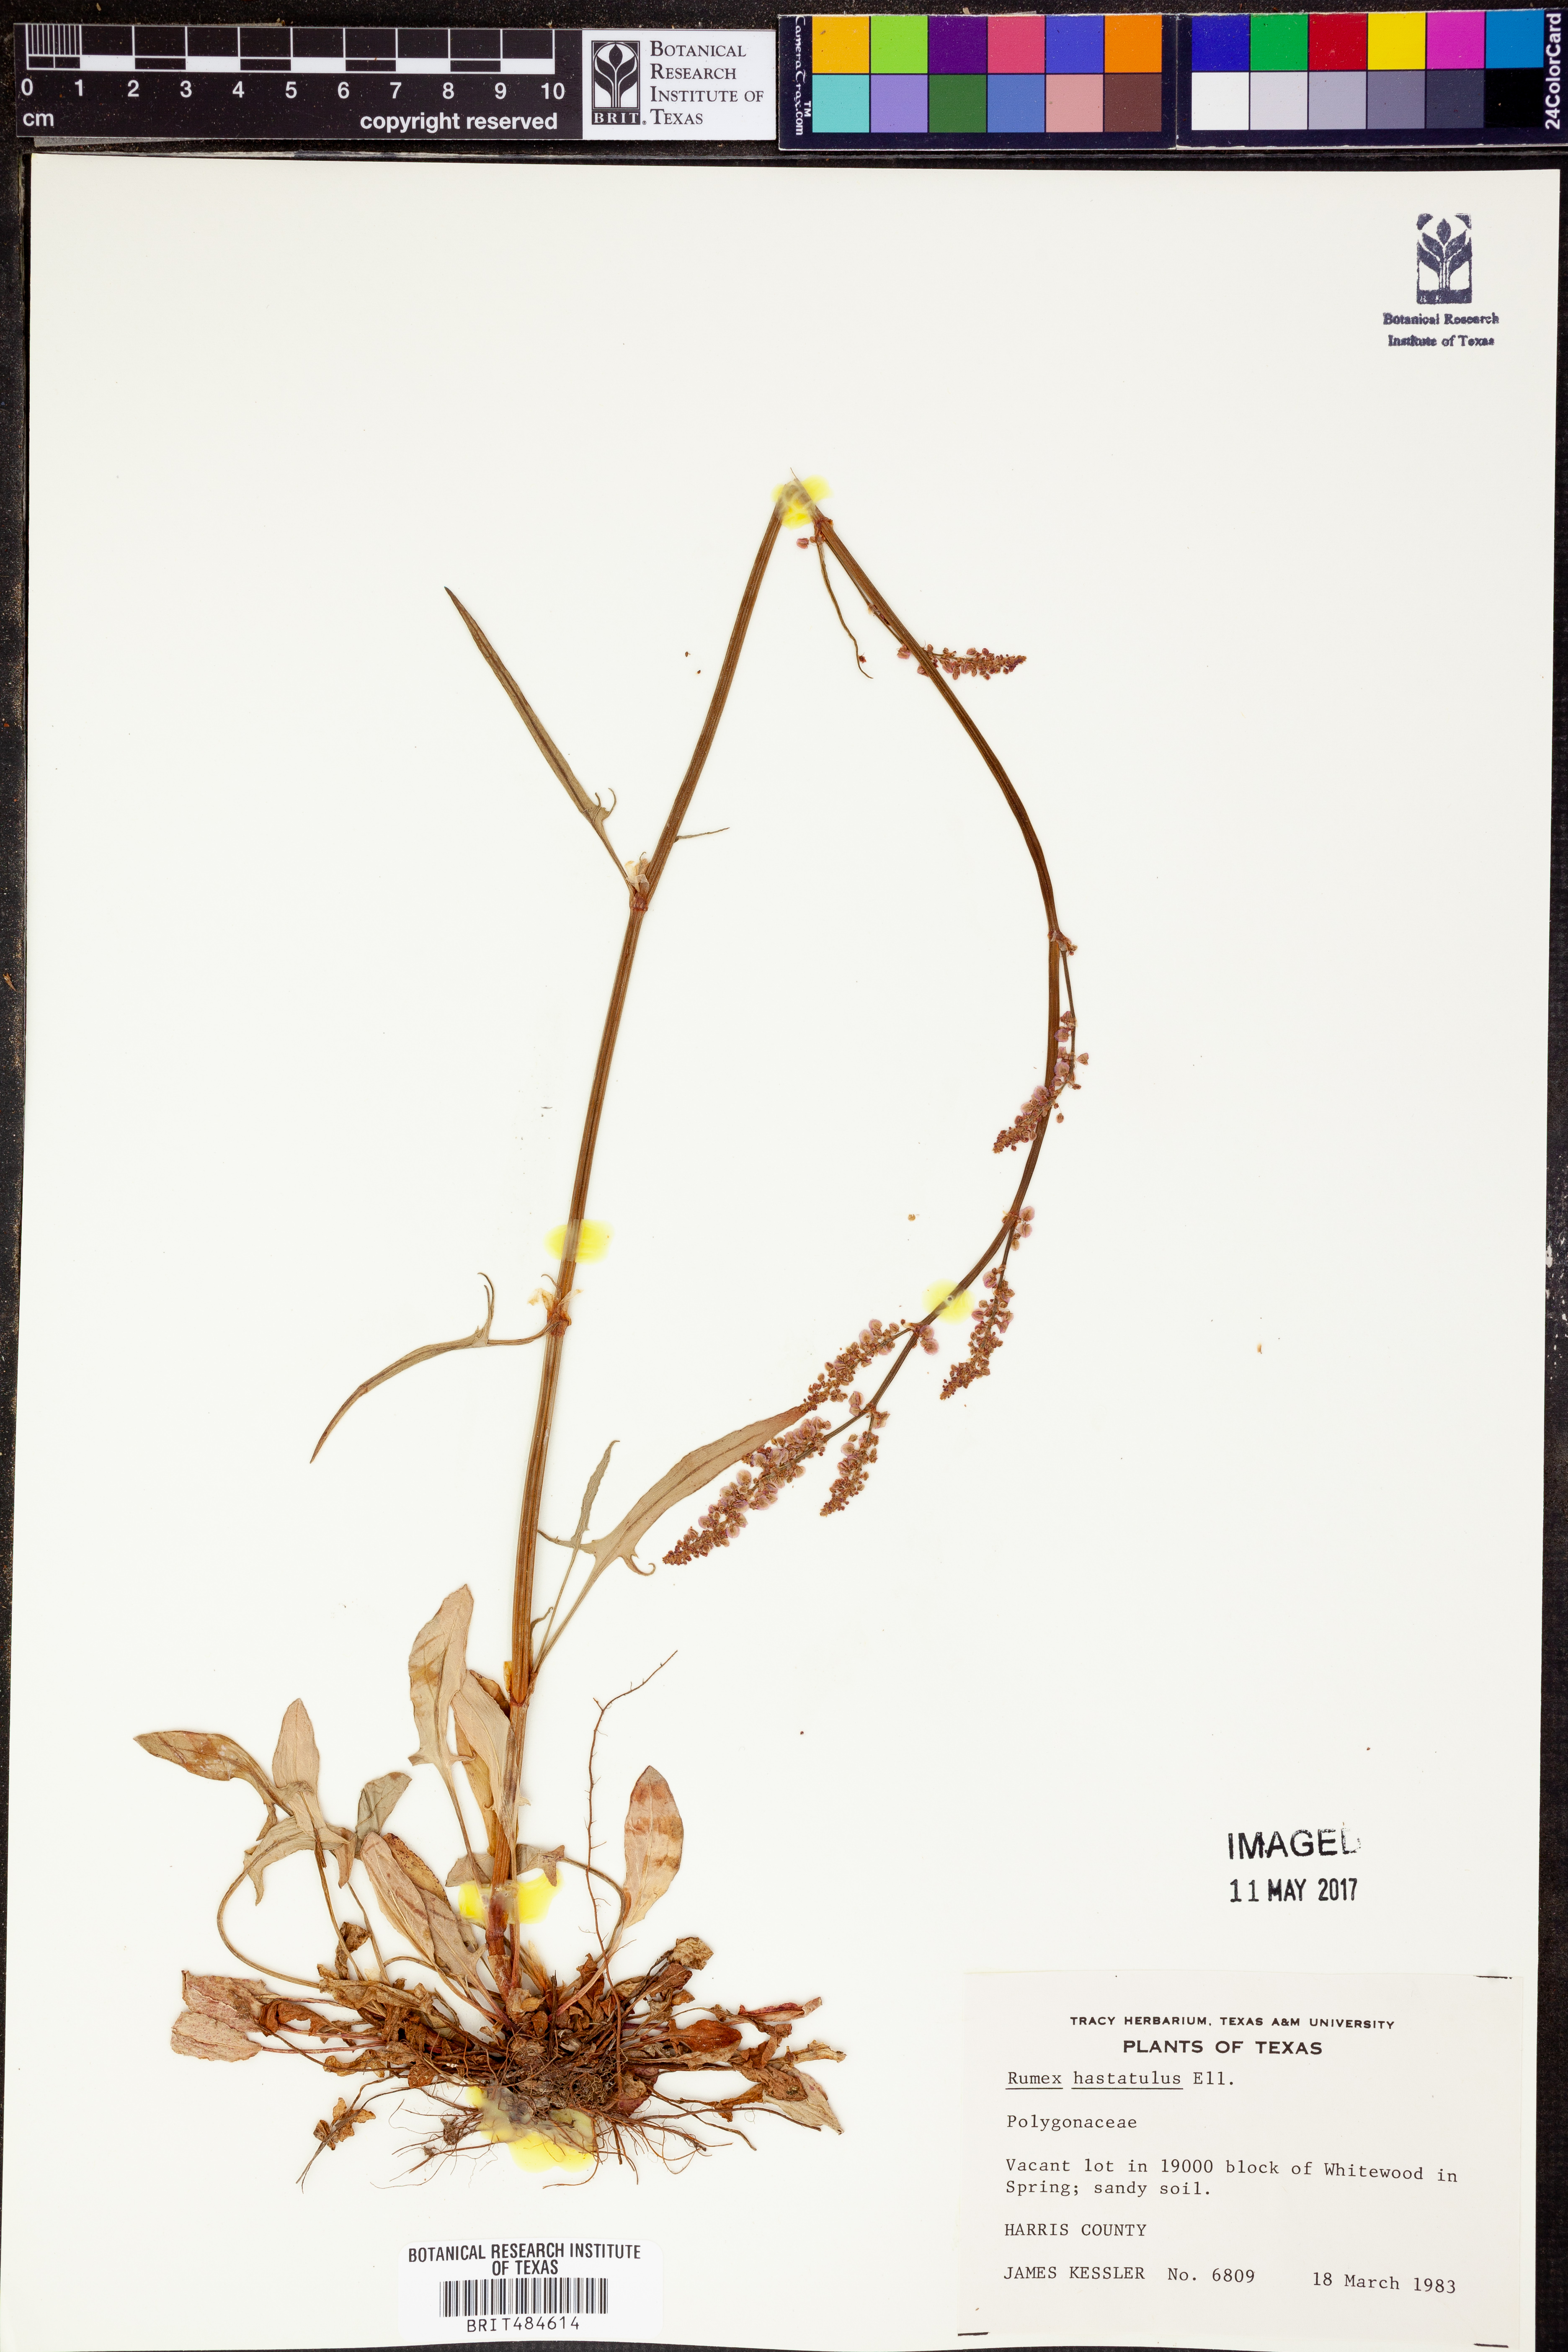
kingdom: Plantae
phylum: Tracheophyta
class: Magnoliopsida
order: Caryophyllales
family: Polygonaceae
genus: Rumex
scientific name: Rumex hastatulus
